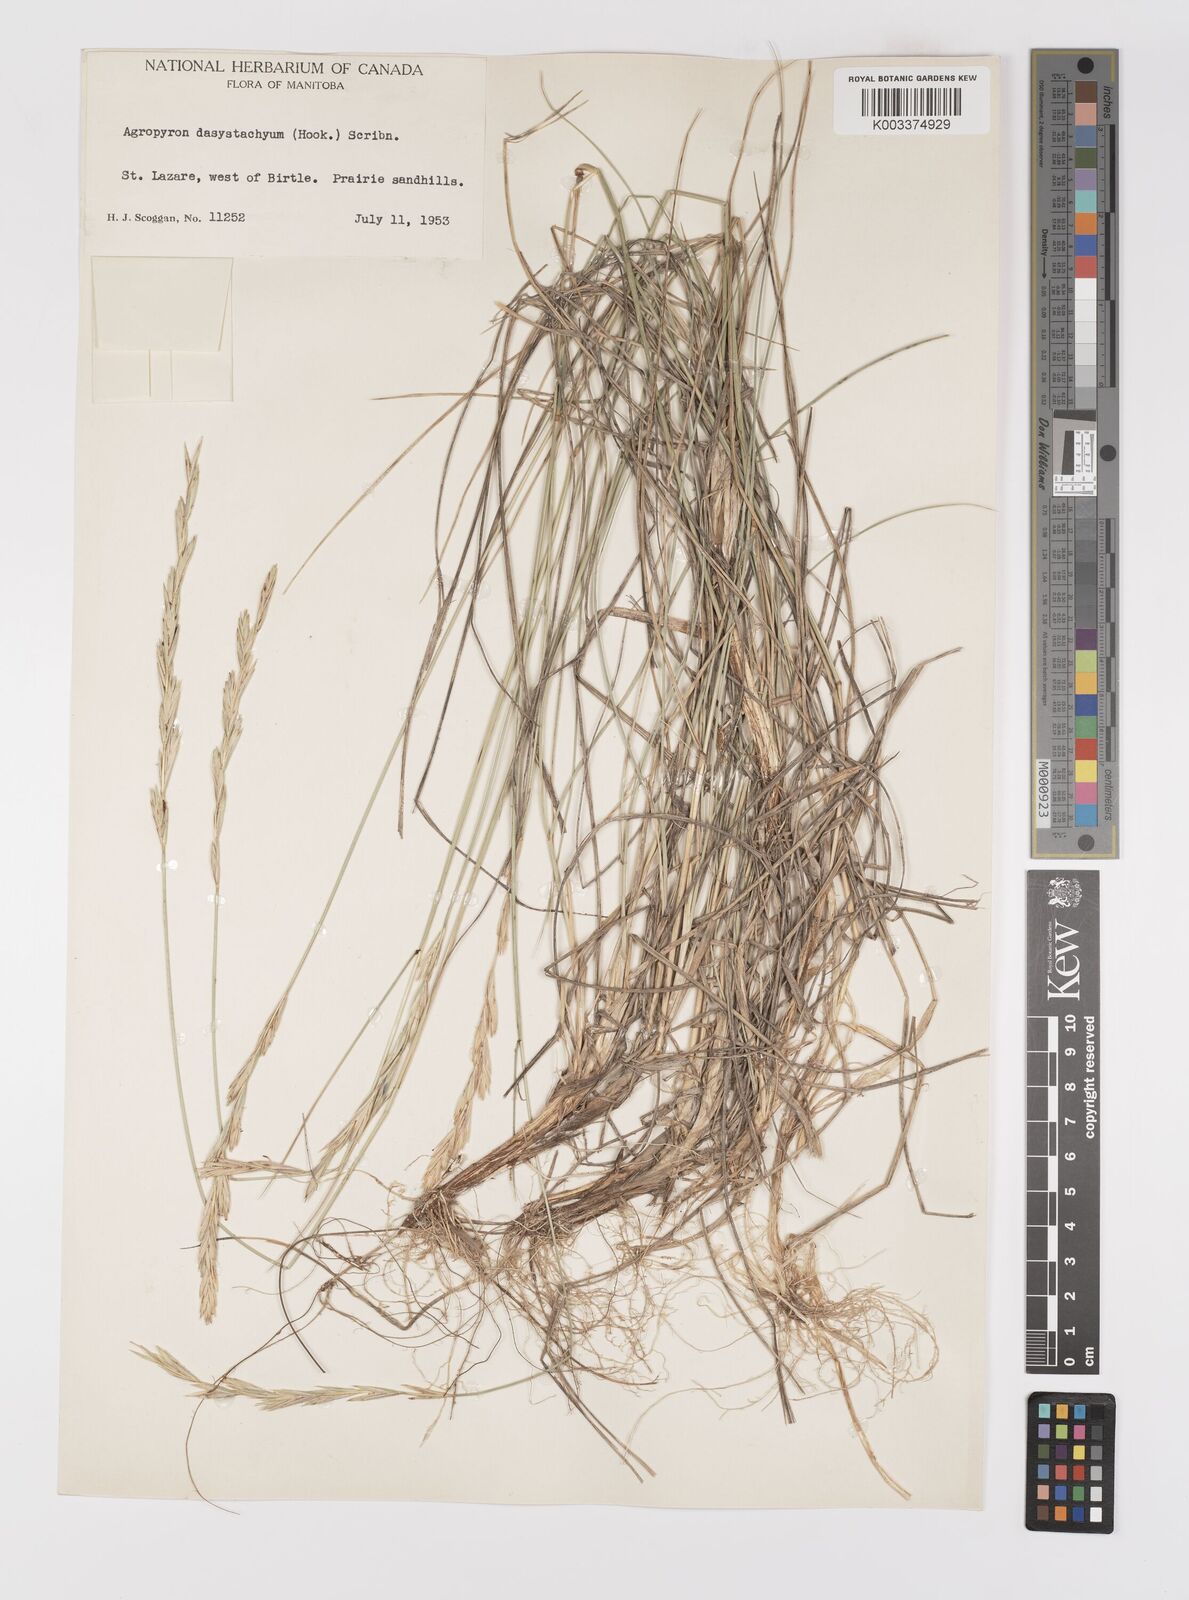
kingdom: Plantae
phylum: Tracheophyta
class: Liliopsida
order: Poales
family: Poaceae
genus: Elymus
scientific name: Elymus lanceolatus
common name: Thick-spike wheatgrass
